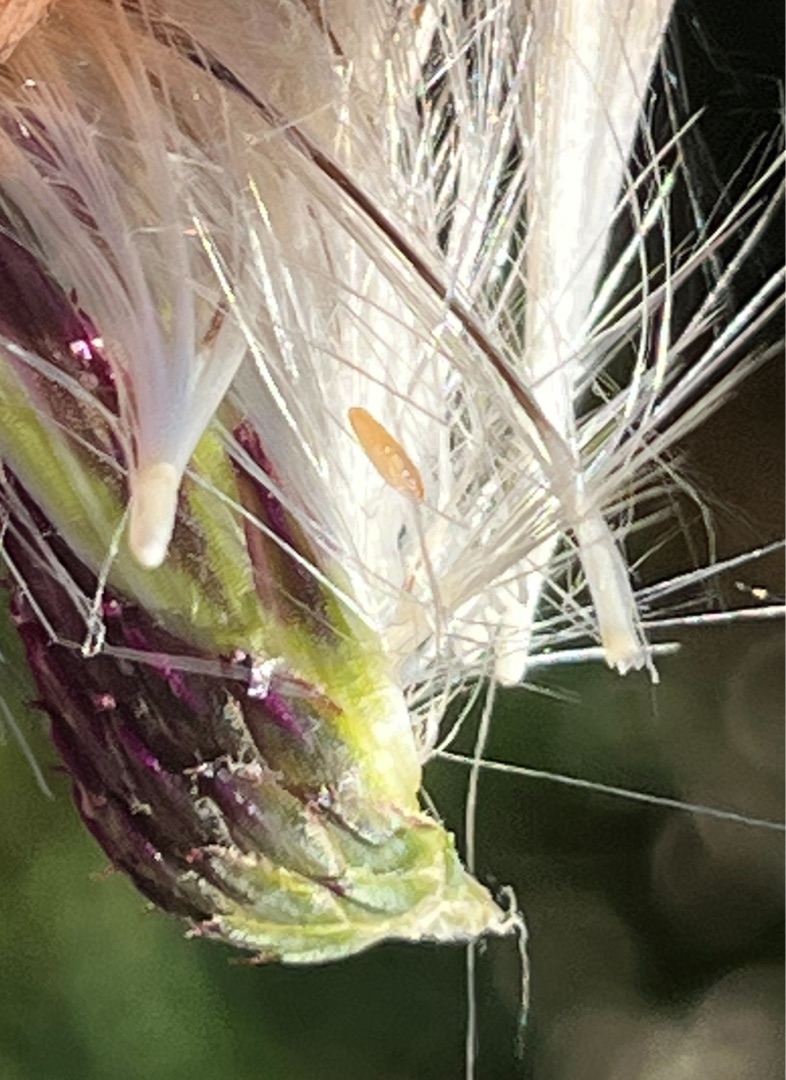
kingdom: Animalia
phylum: Arthropoda
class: Insecta
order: Diptera
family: Cecidomyiidae
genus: Jaapiella
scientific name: Jaapiella cirsiicola
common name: Tidselgalmyg
